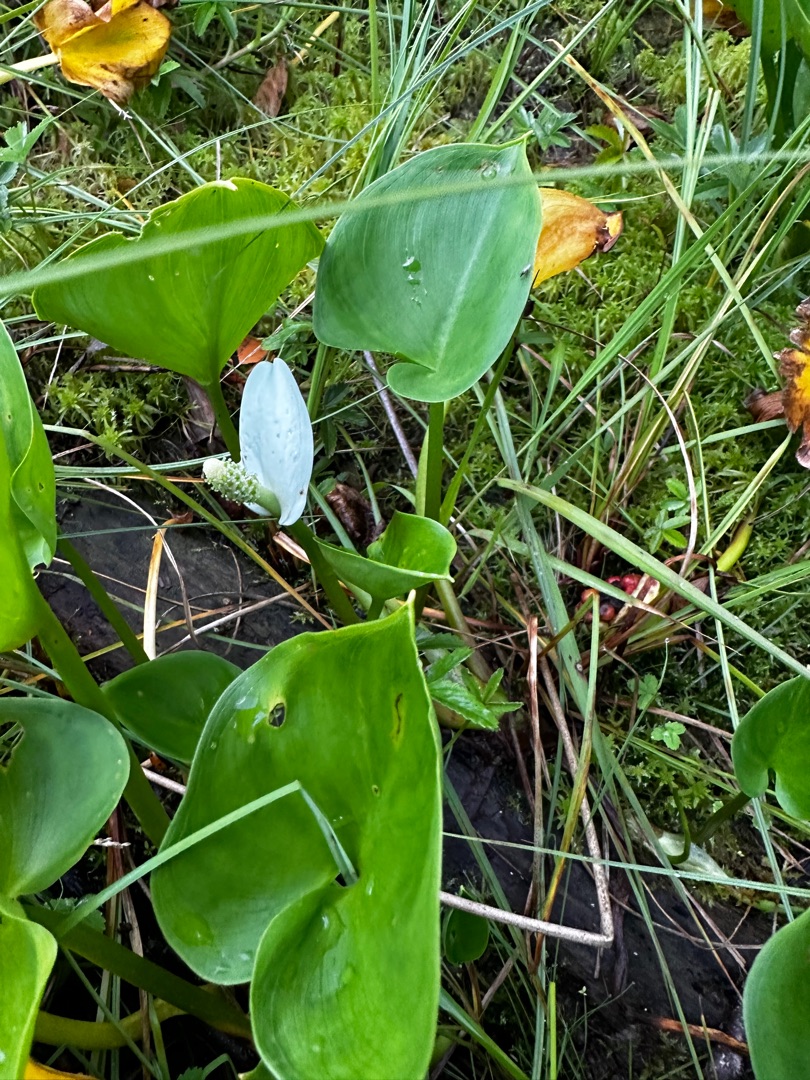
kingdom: Plantae
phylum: Tracheophyta
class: Liliopsida
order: Alismatales
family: Araceae
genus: Calla
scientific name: Calla palustris
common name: Kærmysse
